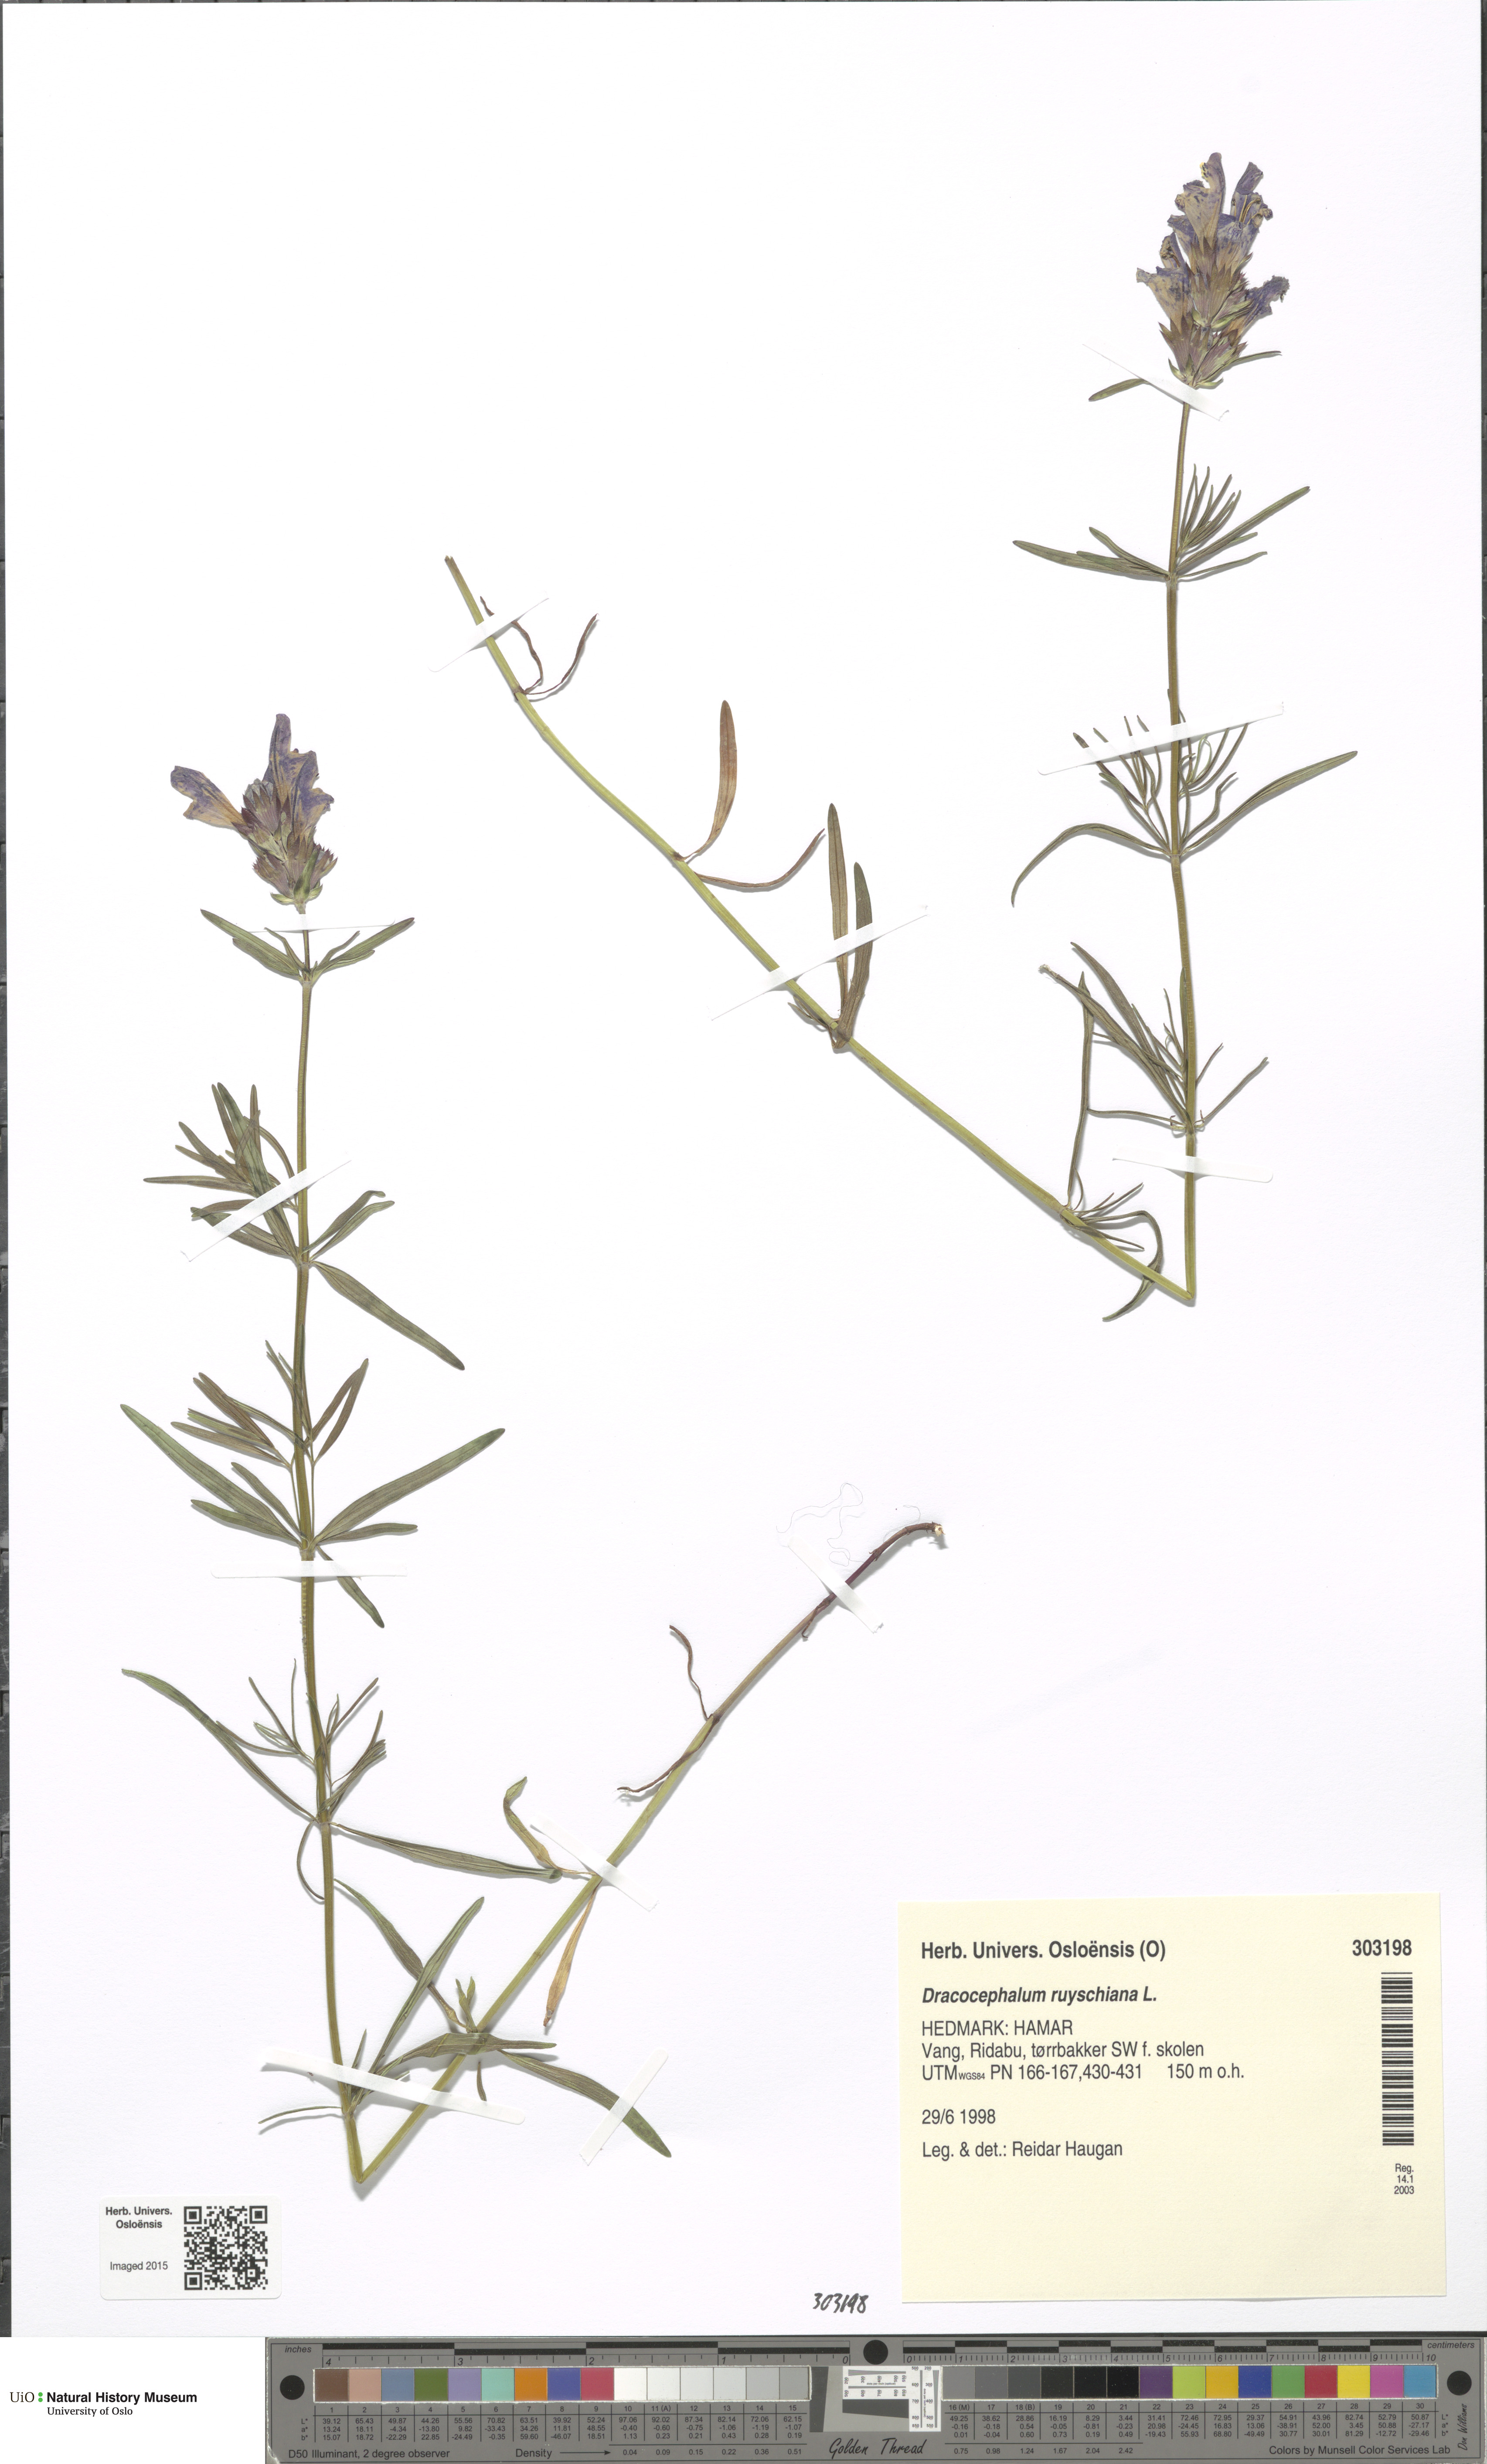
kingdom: Plantae
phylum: Tracheophyta
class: Magnoliopsida
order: Lamiales
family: Lamiaceae
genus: Dracocephalum
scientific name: Dracocephalum ruyschiana
